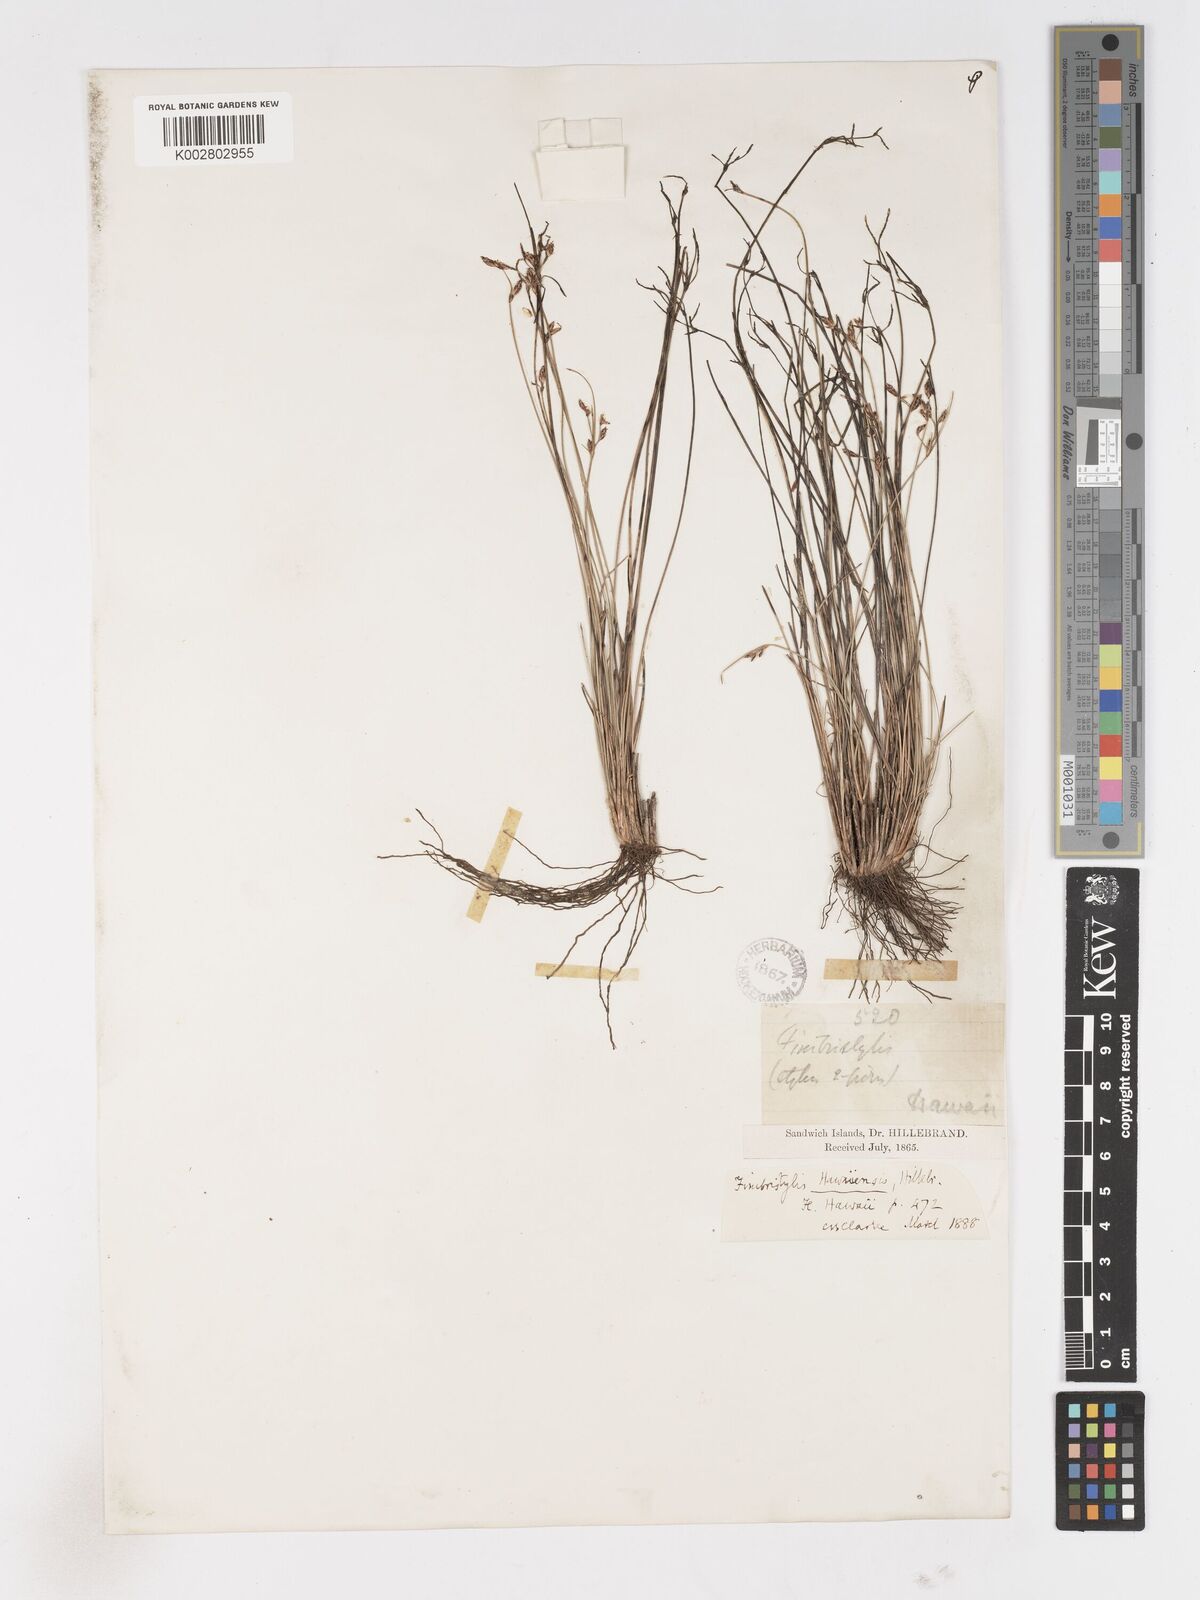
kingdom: Plantae
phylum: Tracheophyta
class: Liliopsida
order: Poales
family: Cyperaceae
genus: Fimbristylis
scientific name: Fimbristylis hawaiiensis
